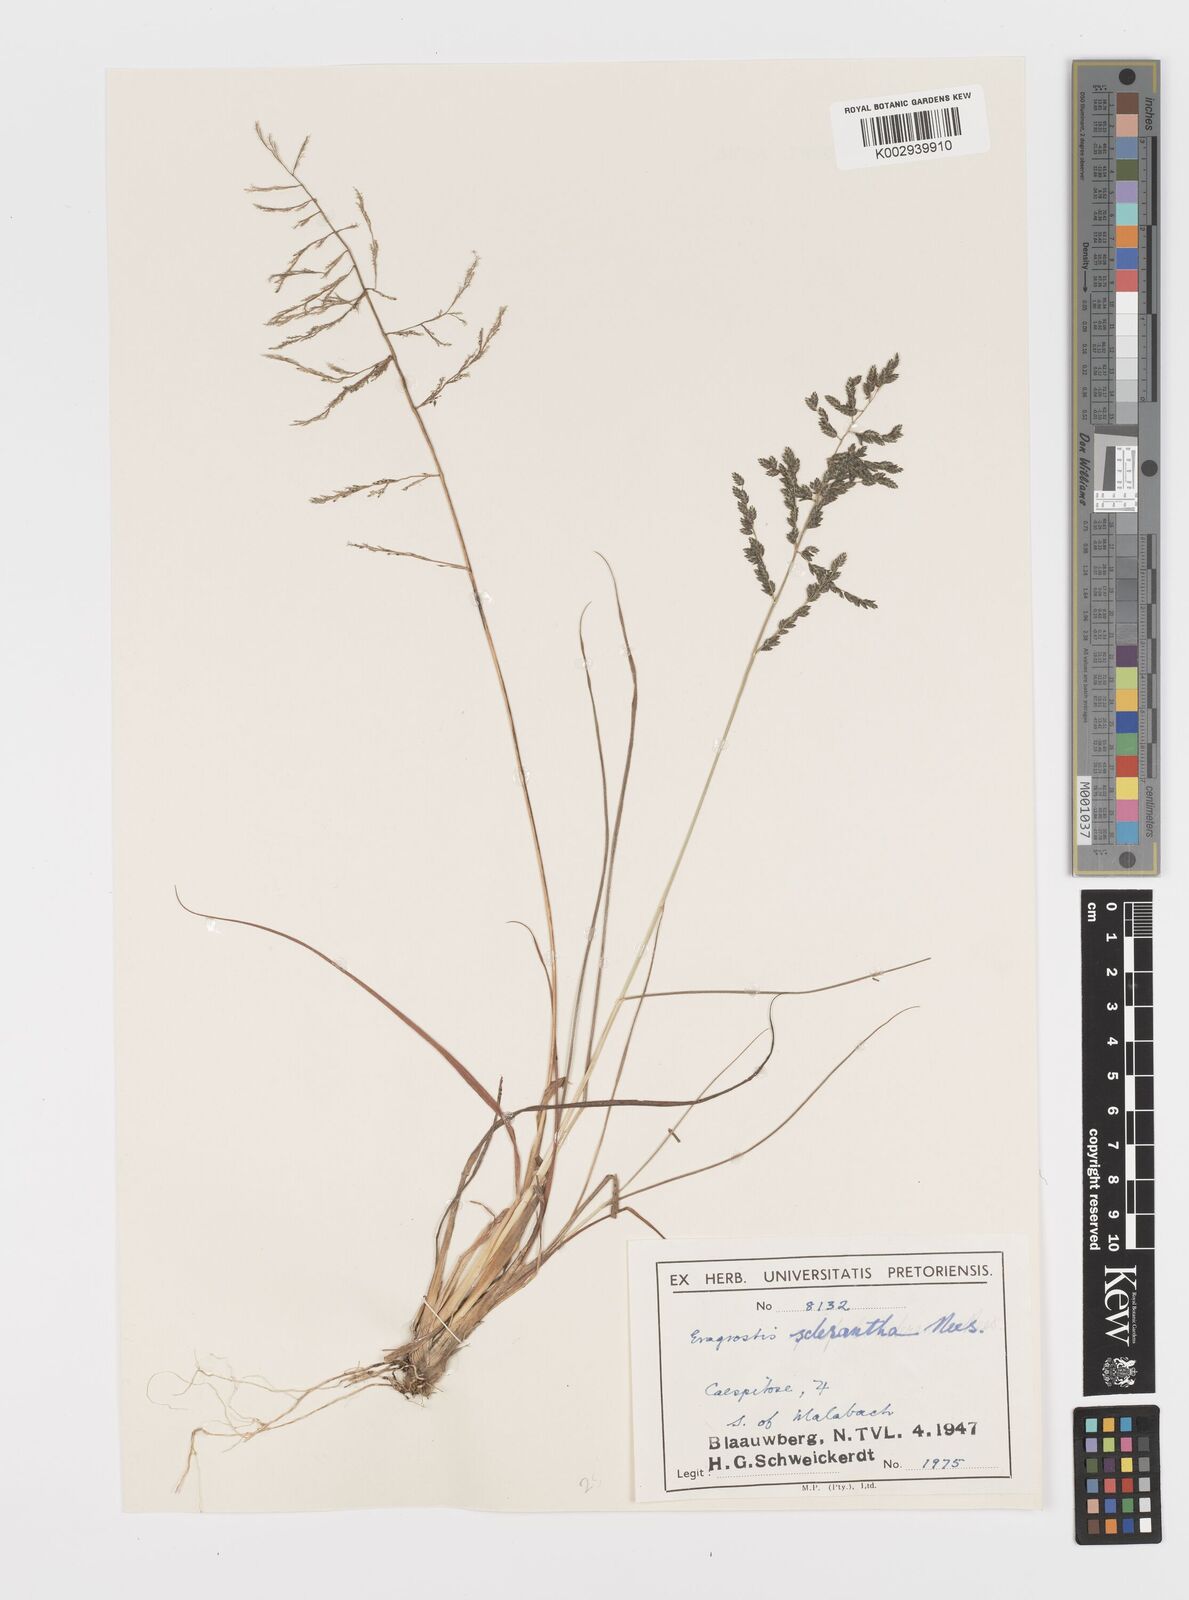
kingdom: Plantae
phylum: Tracheophyta
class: Liliopsida
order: Poales
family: Poaceae
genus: Eragrostis
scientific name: Eragrostis sclerantha
